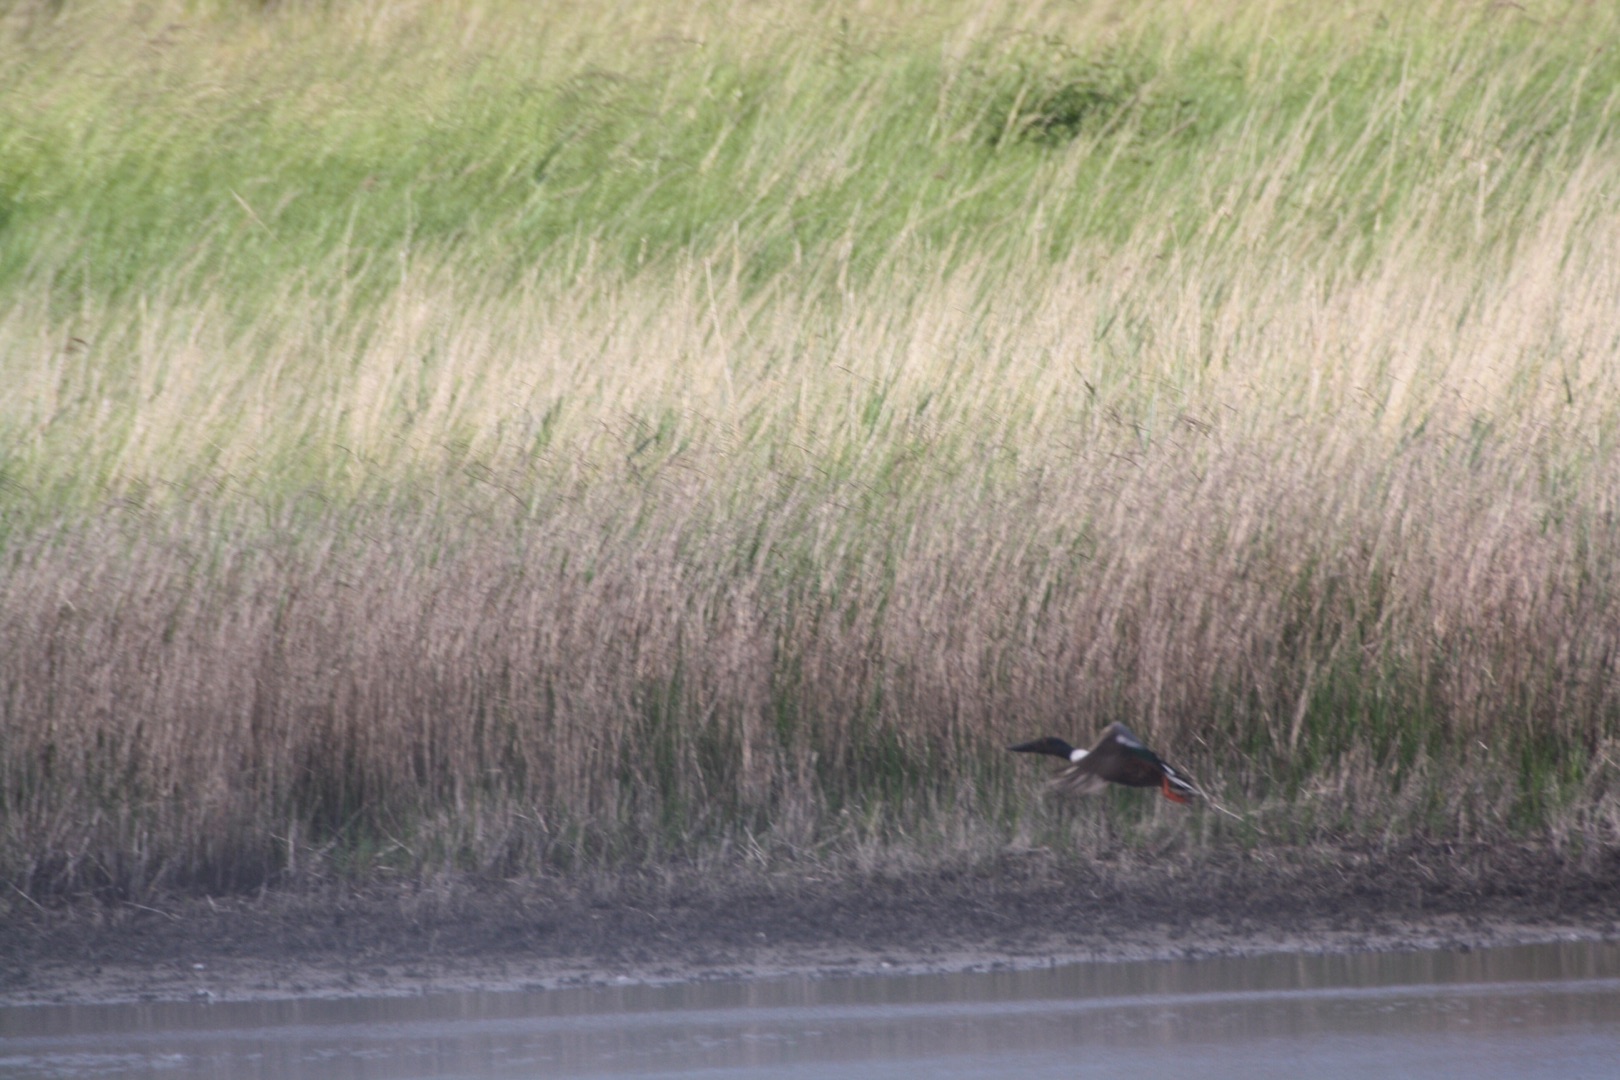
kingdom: Animalia
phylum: Chordata
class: Aves
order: Anseriformes
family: Anatidae
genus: Spatula
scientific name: Spatula clypeata
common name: Skeand
